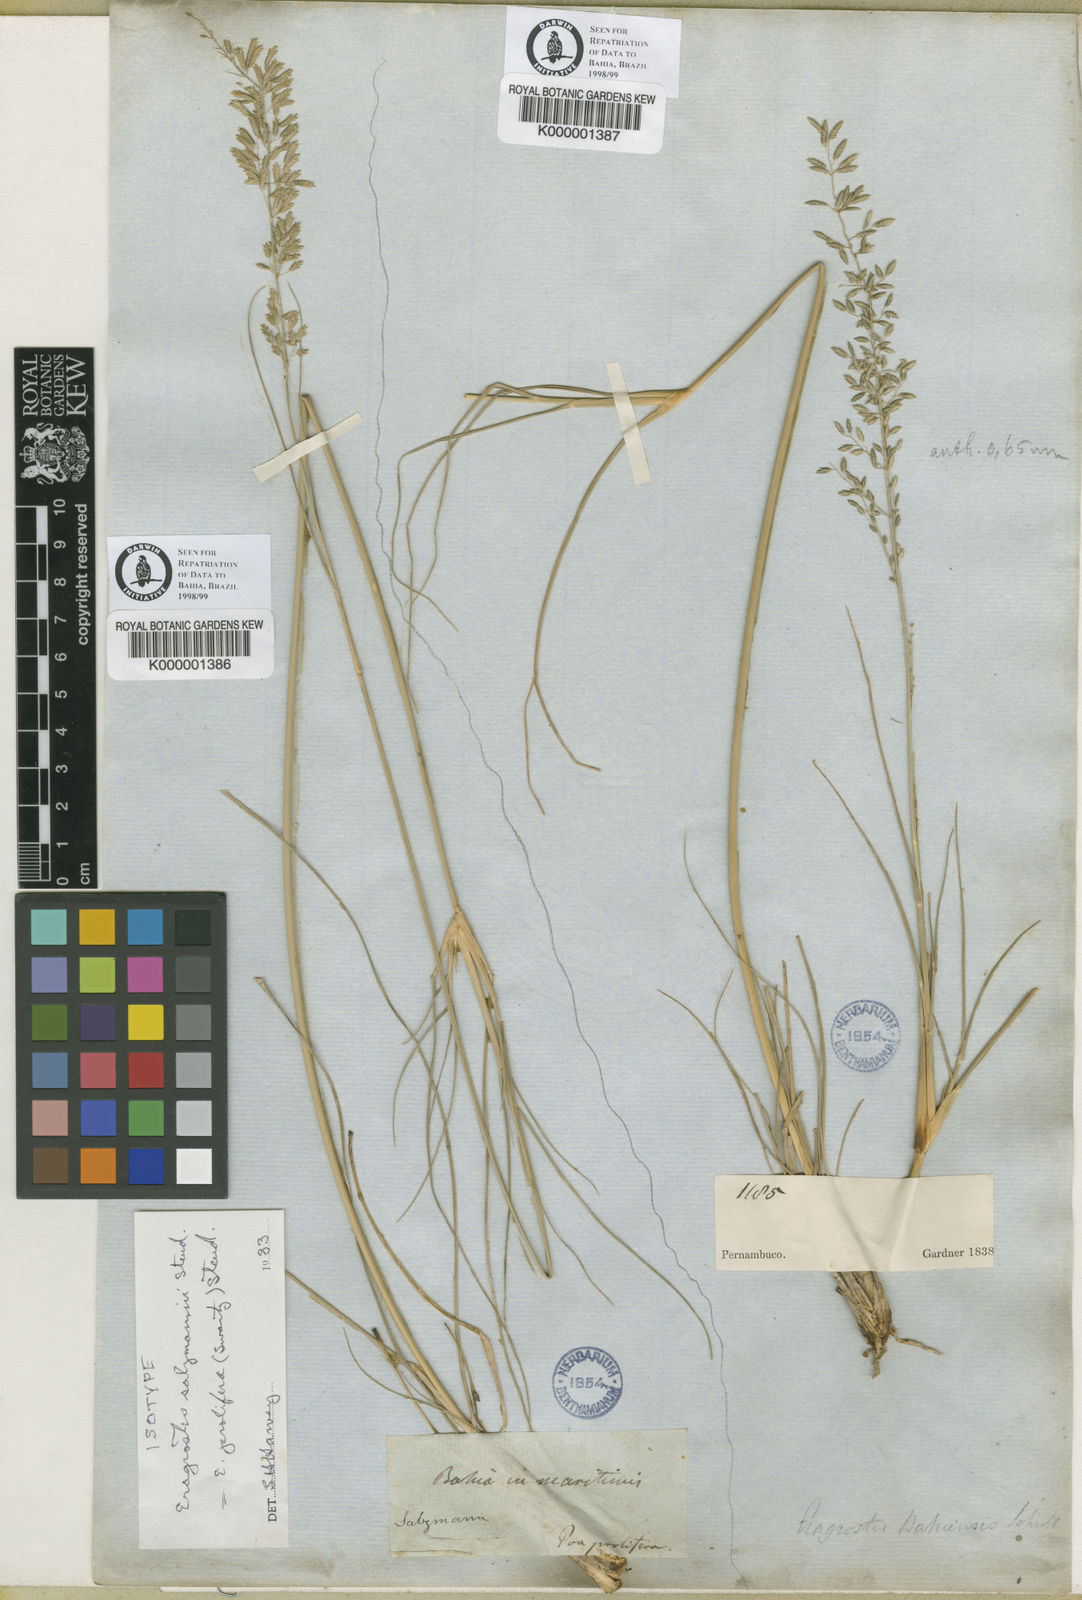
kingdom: Plantae
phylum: Tracheophyta
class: Liliopsida
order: Poales
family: Poaceae
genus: Eragrostis
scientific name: Eragrostis prolifera
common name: Dominican lovegrass
